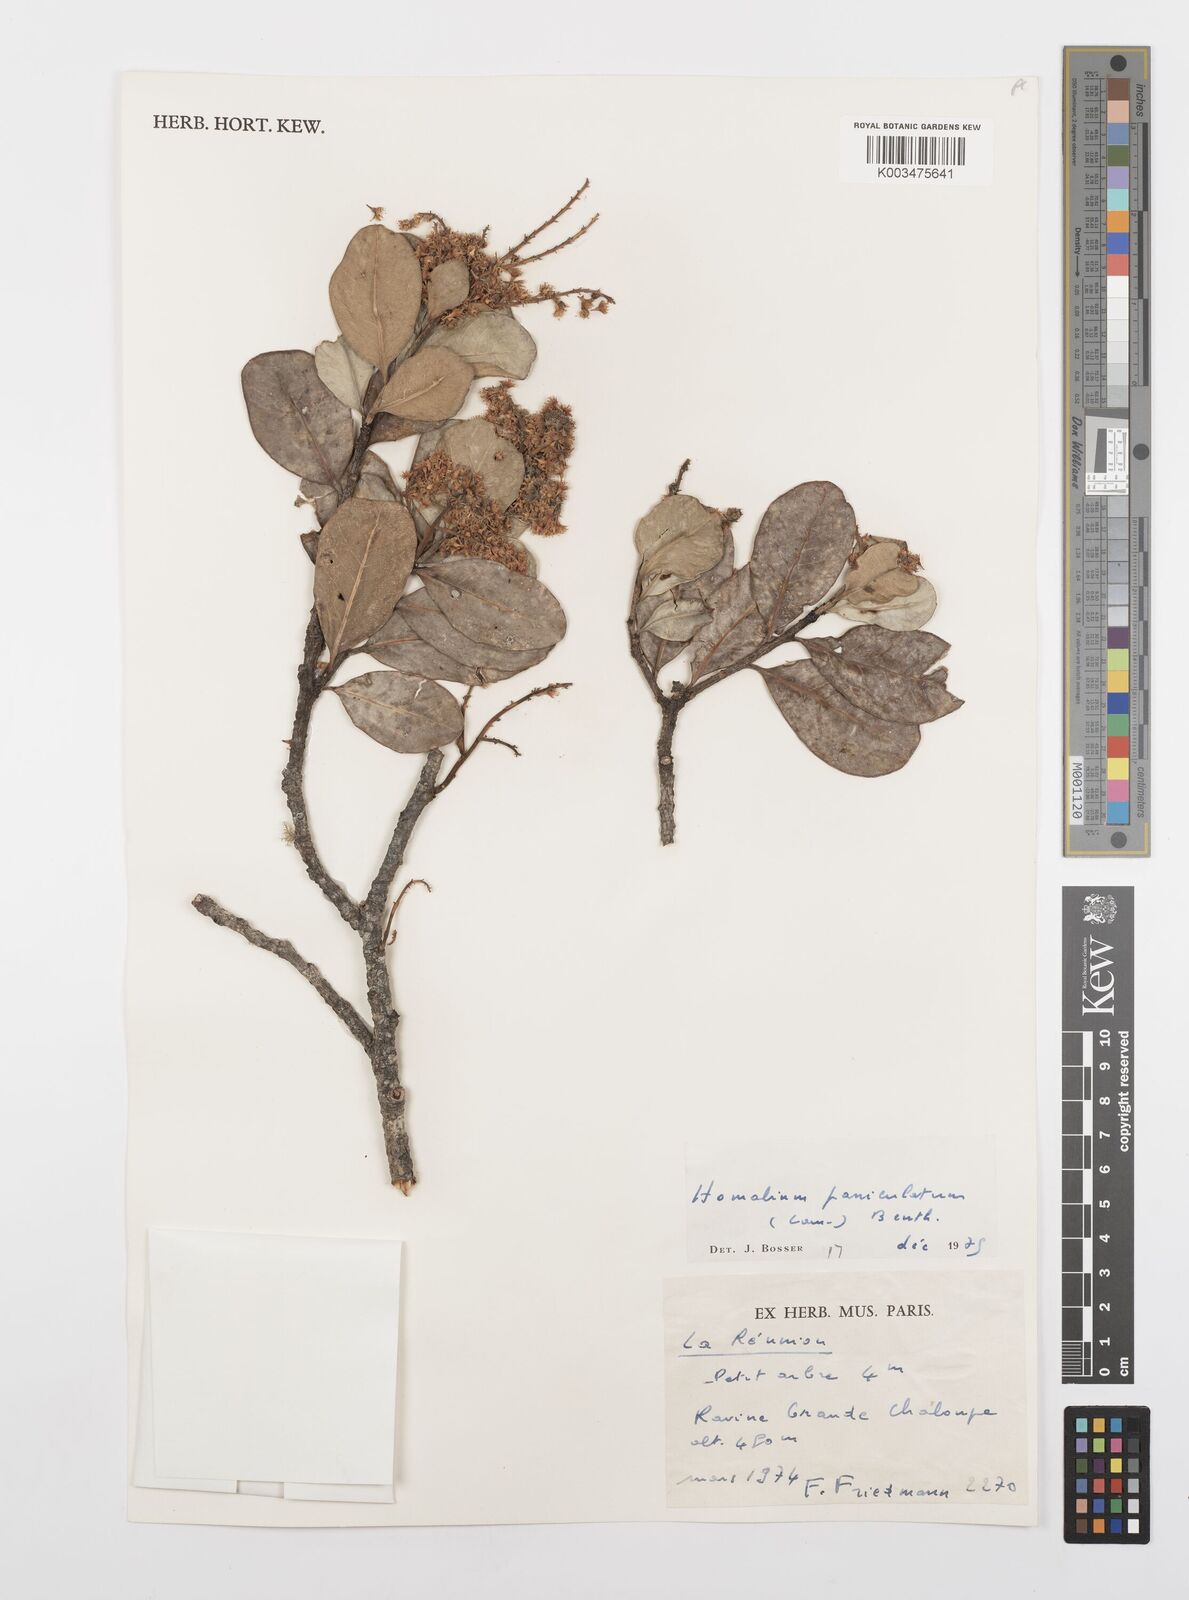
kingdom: Plantae
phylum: Tracheophyta
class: Magnoliopsida
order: Malpighiales
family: Salicaceae
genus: Homalium
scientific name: Homalium erianthum
